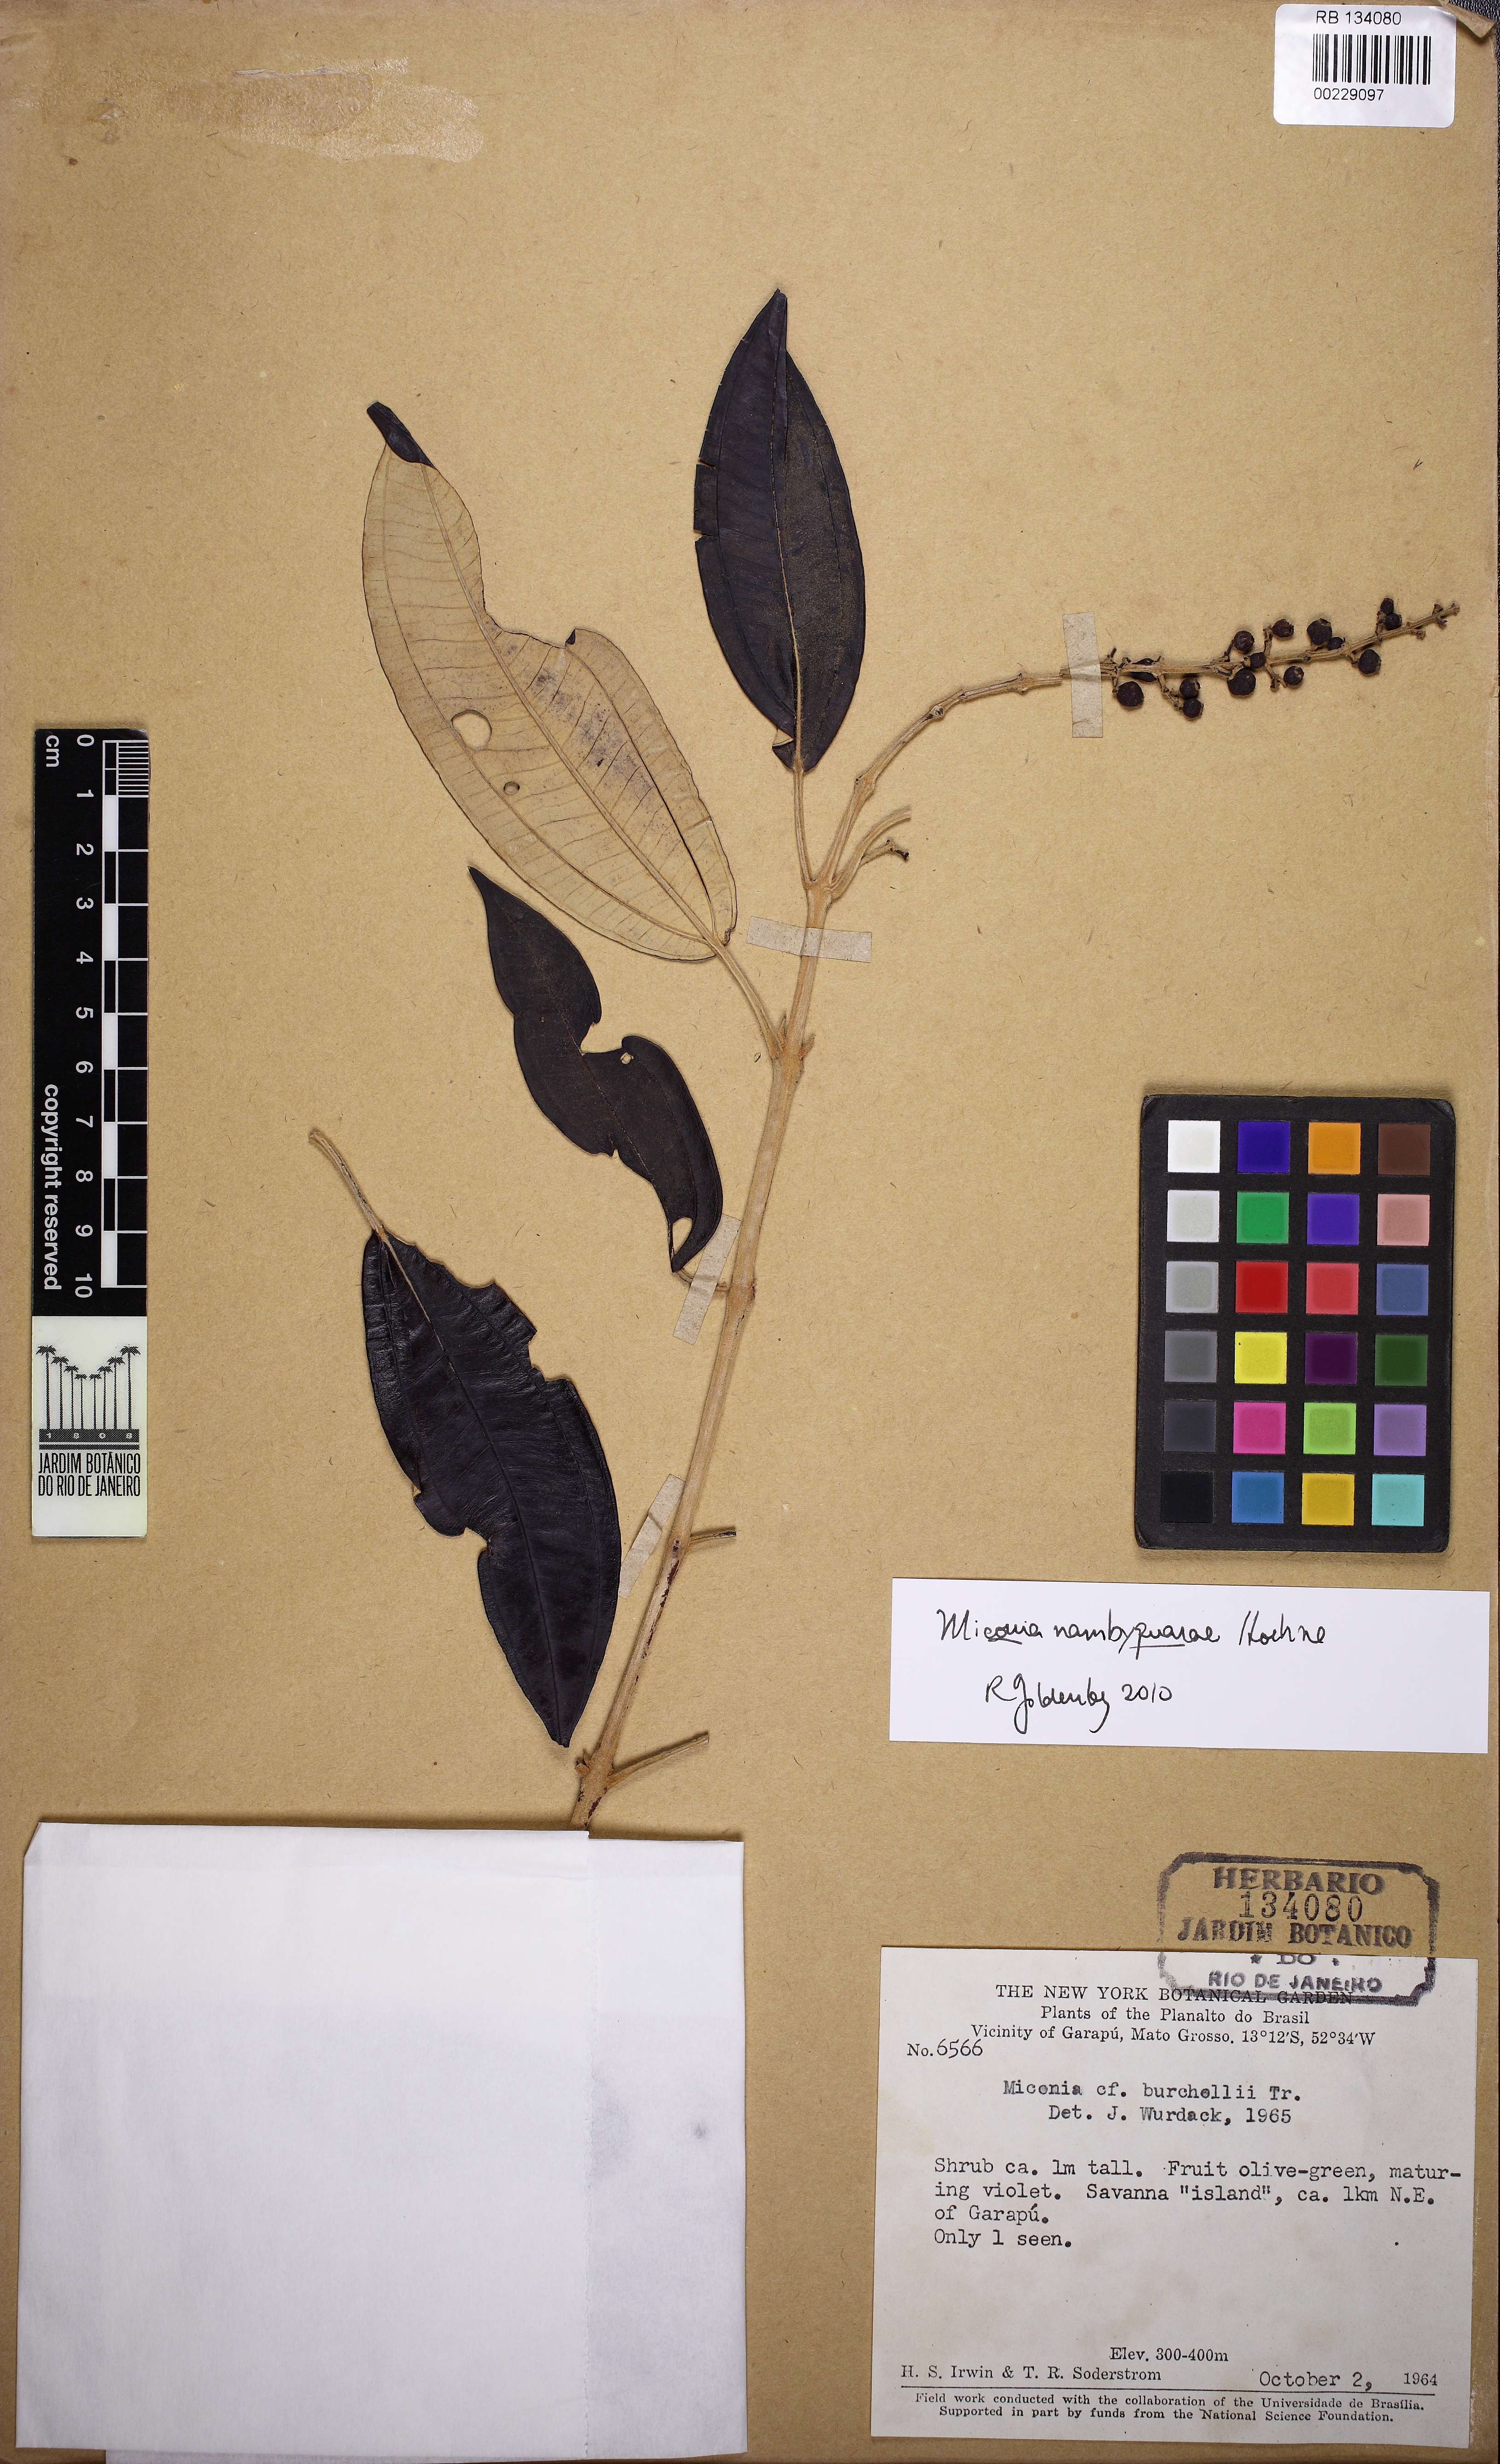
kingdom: Plantae
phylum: Tracheophyta
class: Magnoliopsida
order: Myrtales
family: Melastomataceae
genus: Miconia
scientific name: Miconia nambyquarae
